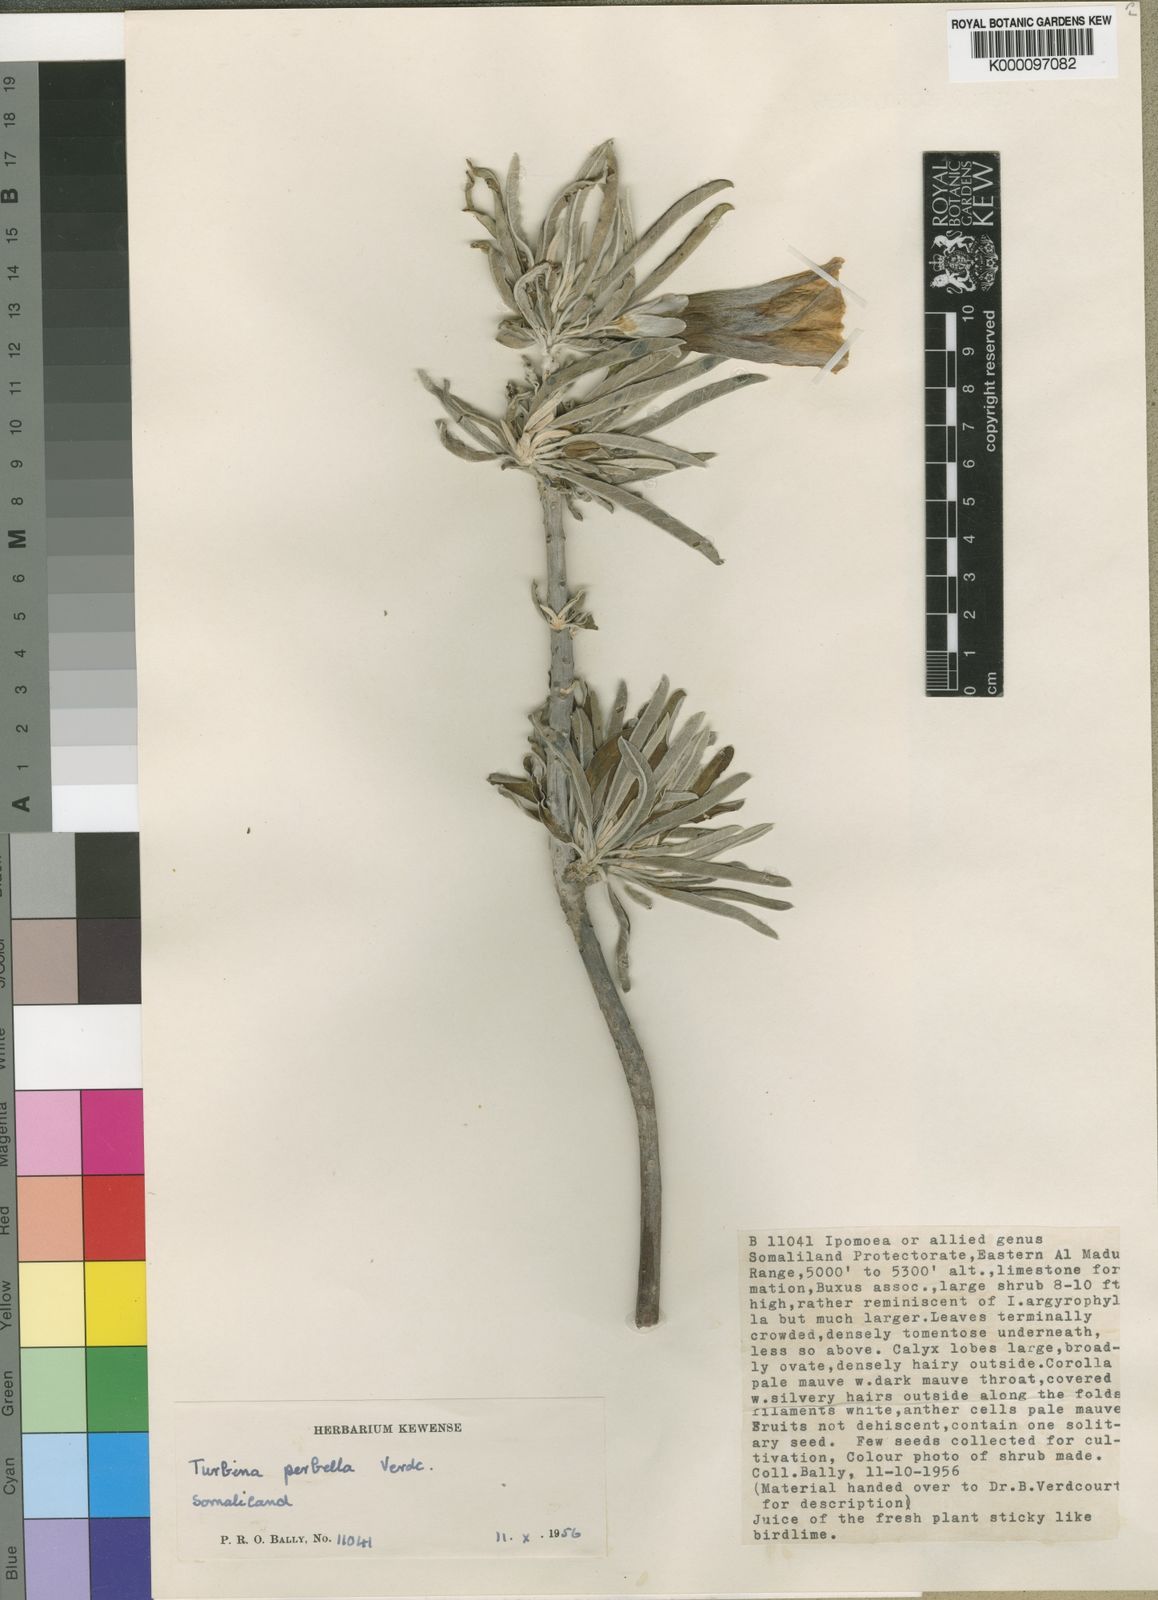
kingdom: Plantae
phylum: Tracheophyta
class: Magnoliopsida
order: Solanales
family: Convolvulaceae
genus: Ipomoea
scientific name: Ipomoea perbella
